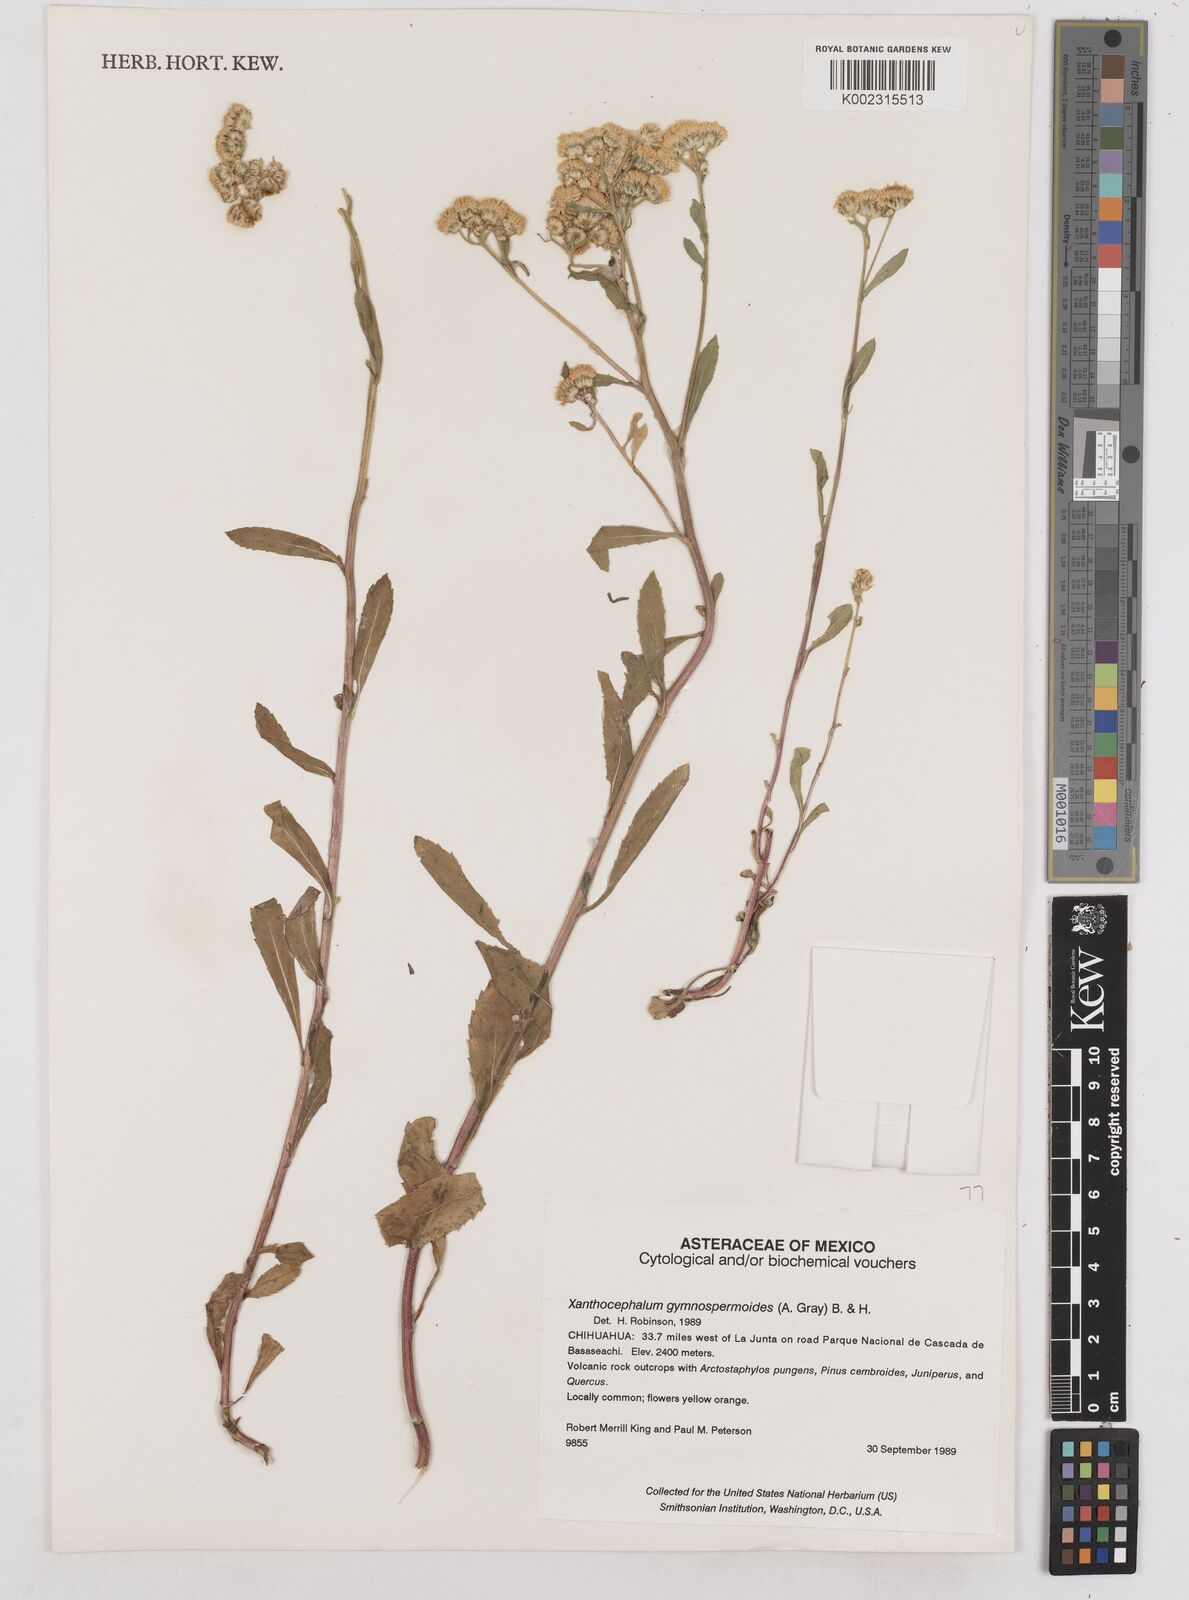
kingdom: Plantae
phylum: Tracheophyta
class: Magnoliopsida
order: Asterales
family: Asteraceae
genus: Xanthocephalum
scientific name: Xanthocephalum gymnospermoides
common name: San pedro matchweed
